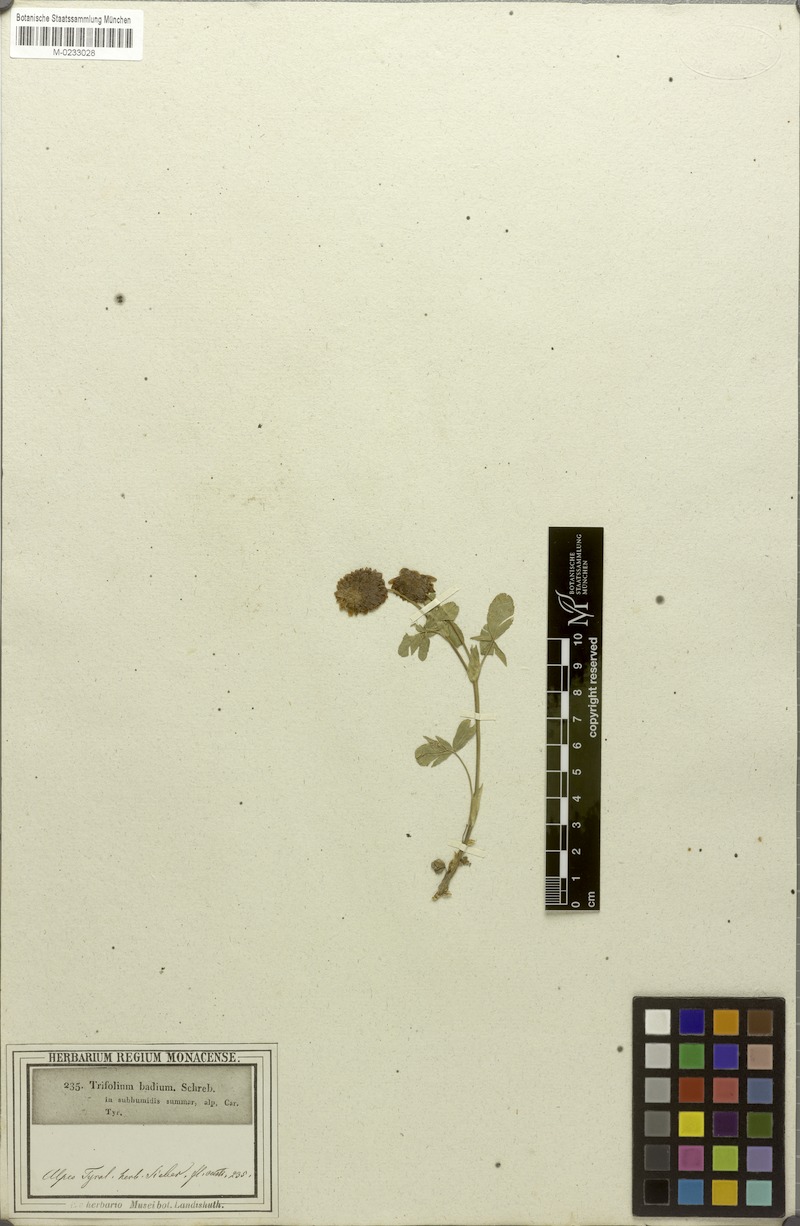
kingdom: Plantae
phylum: Tracheophyta
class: Magnoliopsida
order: Fabales
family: Fabaceae
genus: Trifolium
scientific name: Trifolium badium
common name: Brown clover
